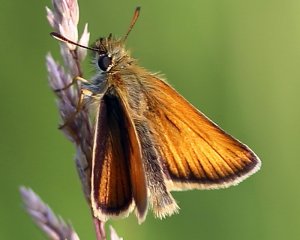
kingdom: Animalia
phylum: Arthropoda
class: Insecta
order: Lepidoptera
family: Hesperiidae
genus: Thymelicus
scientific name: Thymelicus lineola
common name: European Skipper
